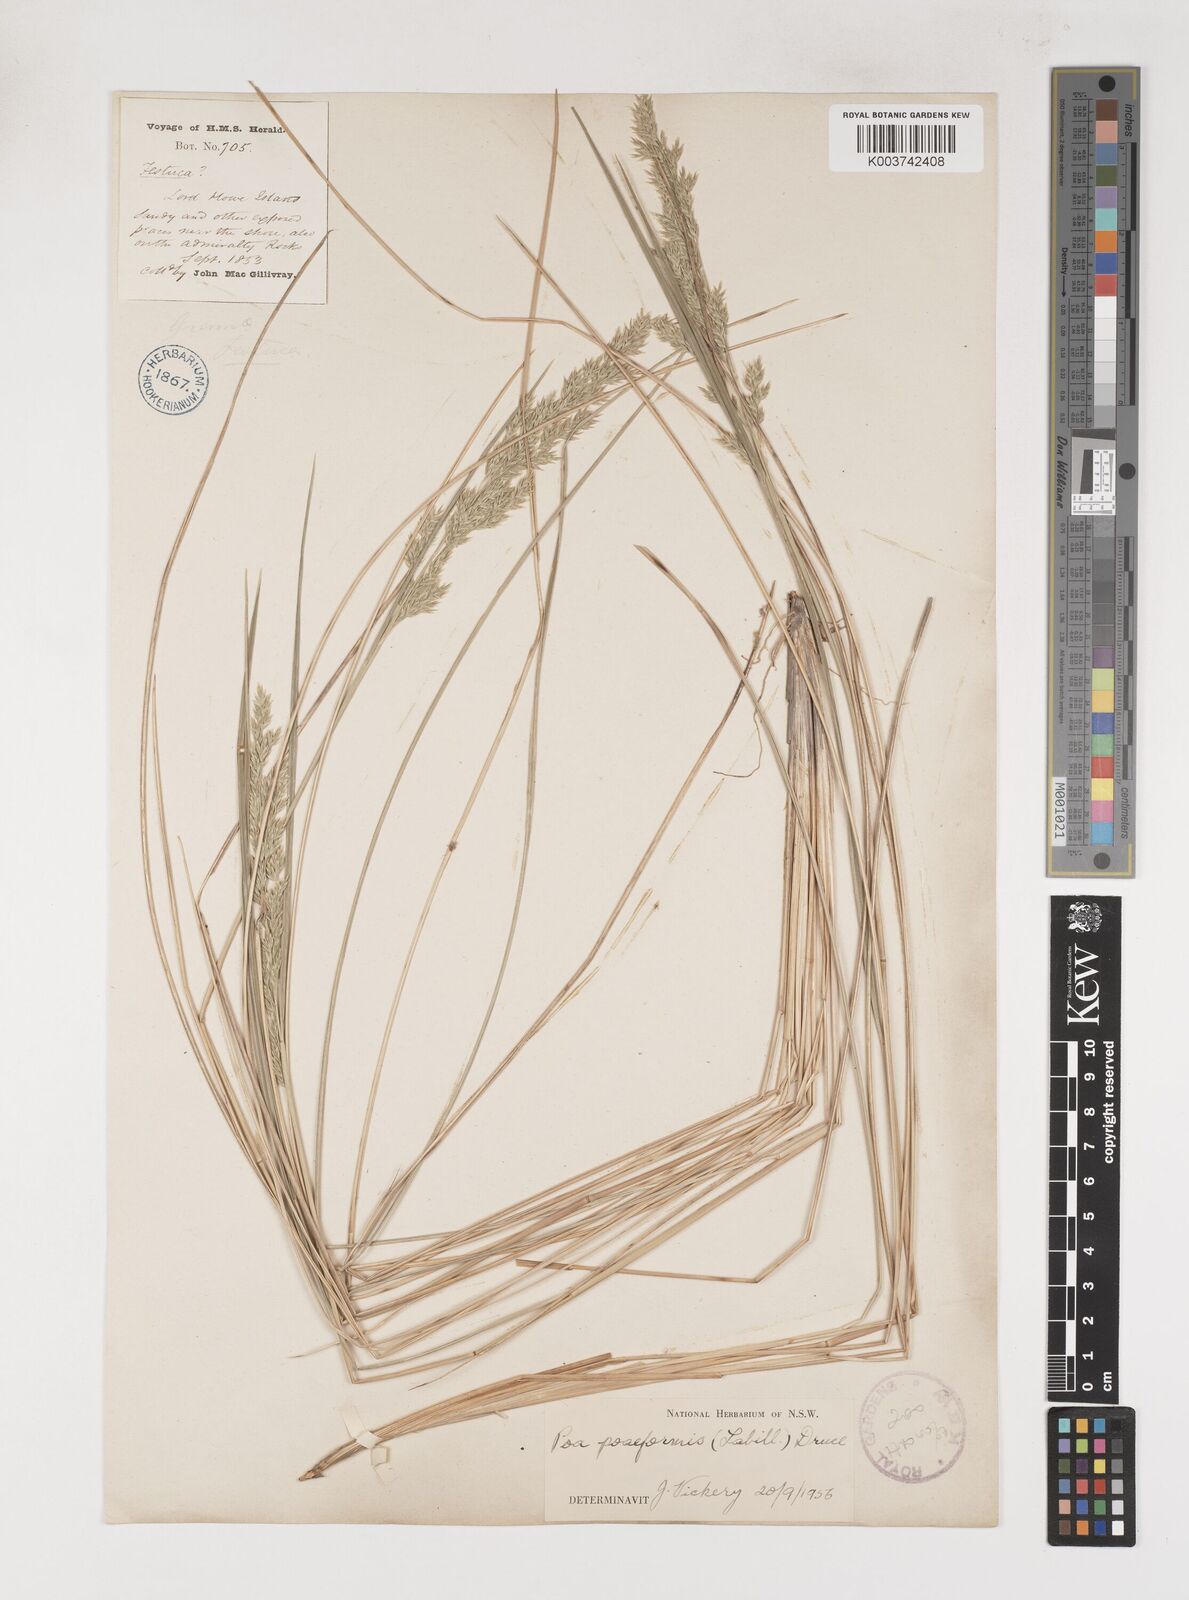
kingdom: Plantae
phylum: Tracheophyta
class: Liliopsida
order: Poales
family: Poaceae
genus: Poa
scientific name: Poa poiformis
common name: Tussock poa
